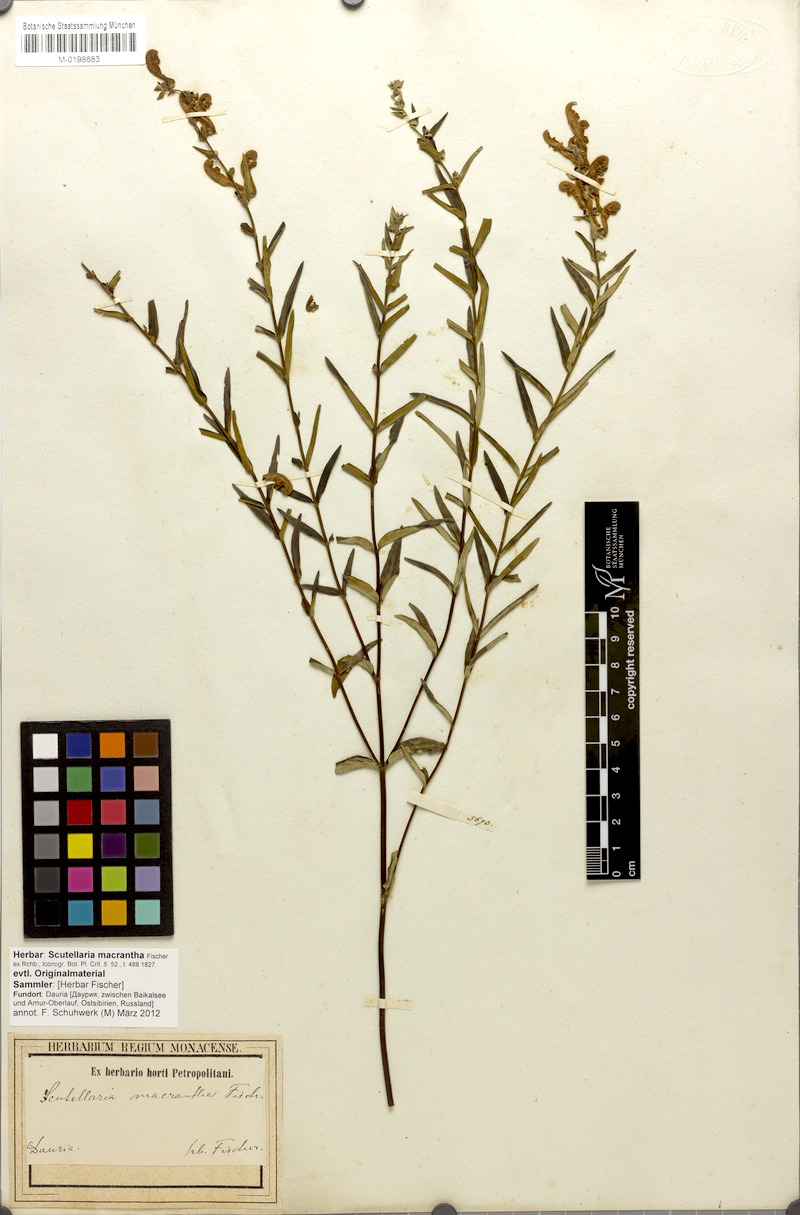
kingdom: Plantae
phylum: Tracheophyta
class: Magnoliopsida
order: Lamiales
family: Lamiaceae
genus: Scutellaria
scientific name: Scutellaria baicalensis
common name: Baikal skullcap
